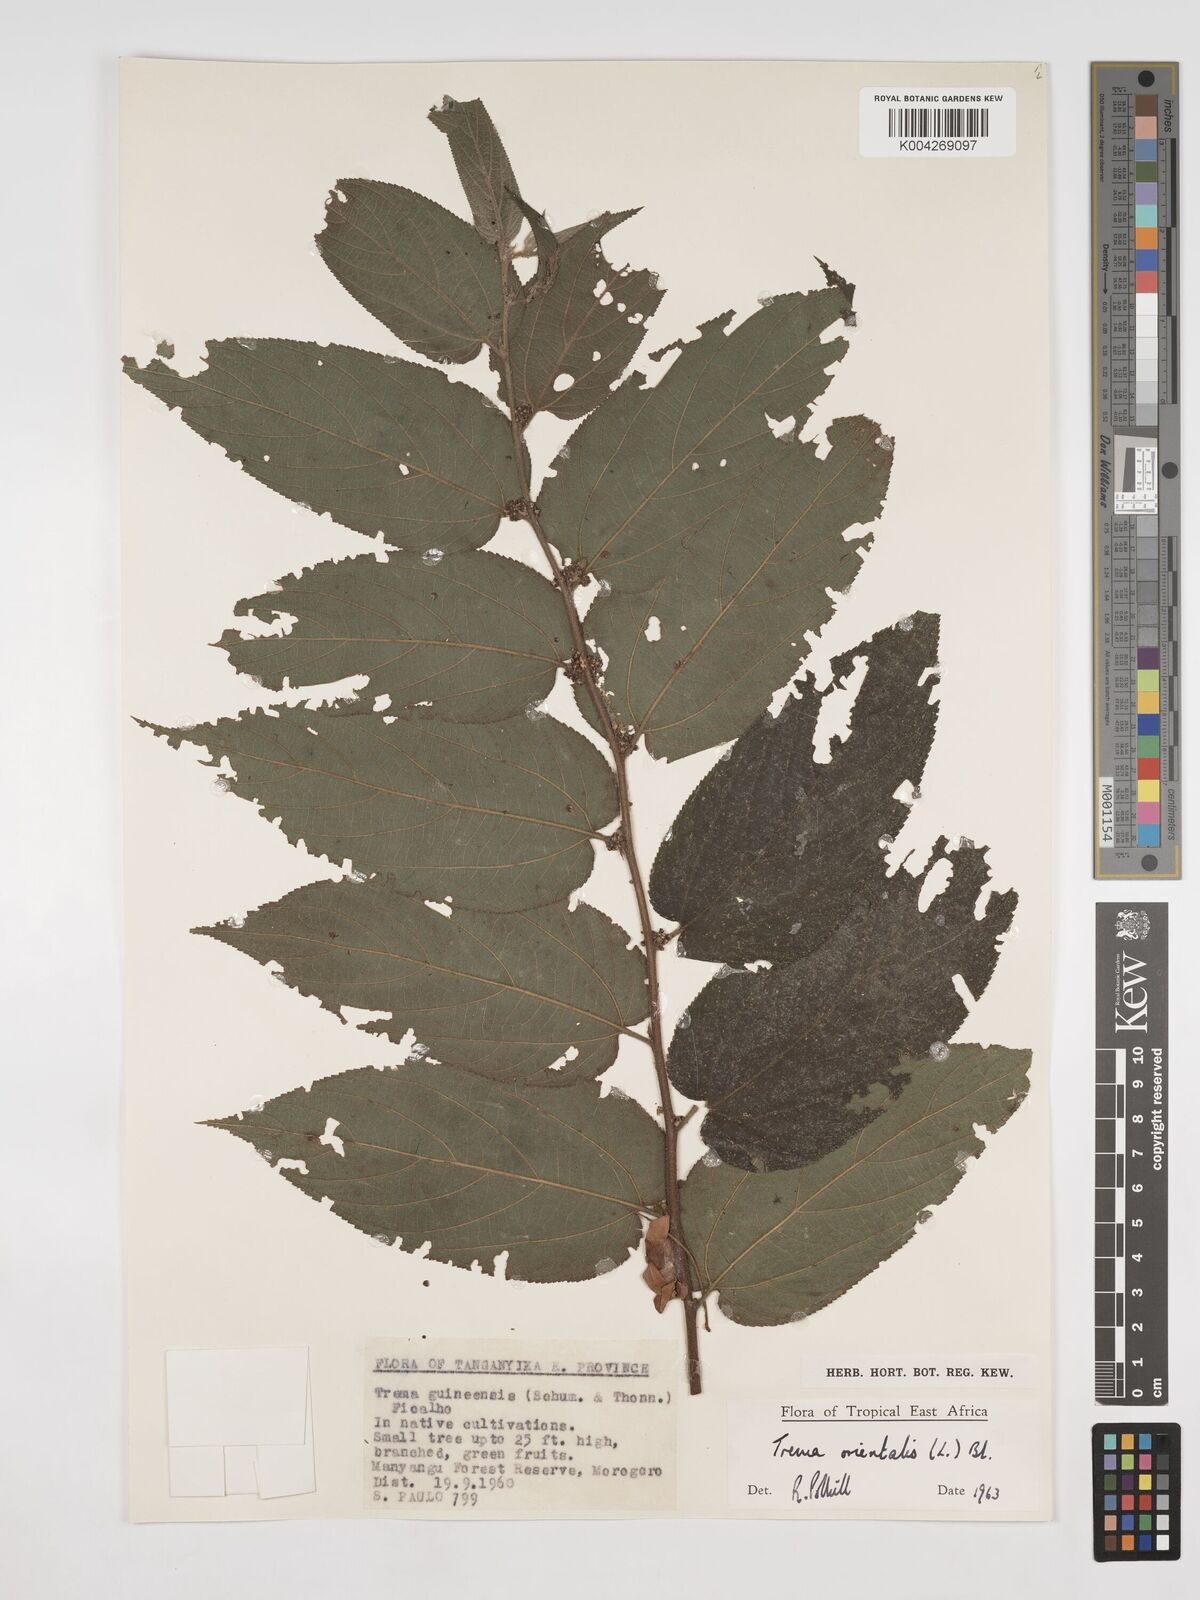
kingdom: Plantae
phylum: Tracheophyta
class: Magnoliopsida
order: Rosales
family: Cannabaceae
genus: Trema
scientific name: Trema orientale
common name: Indian charcoal tree
